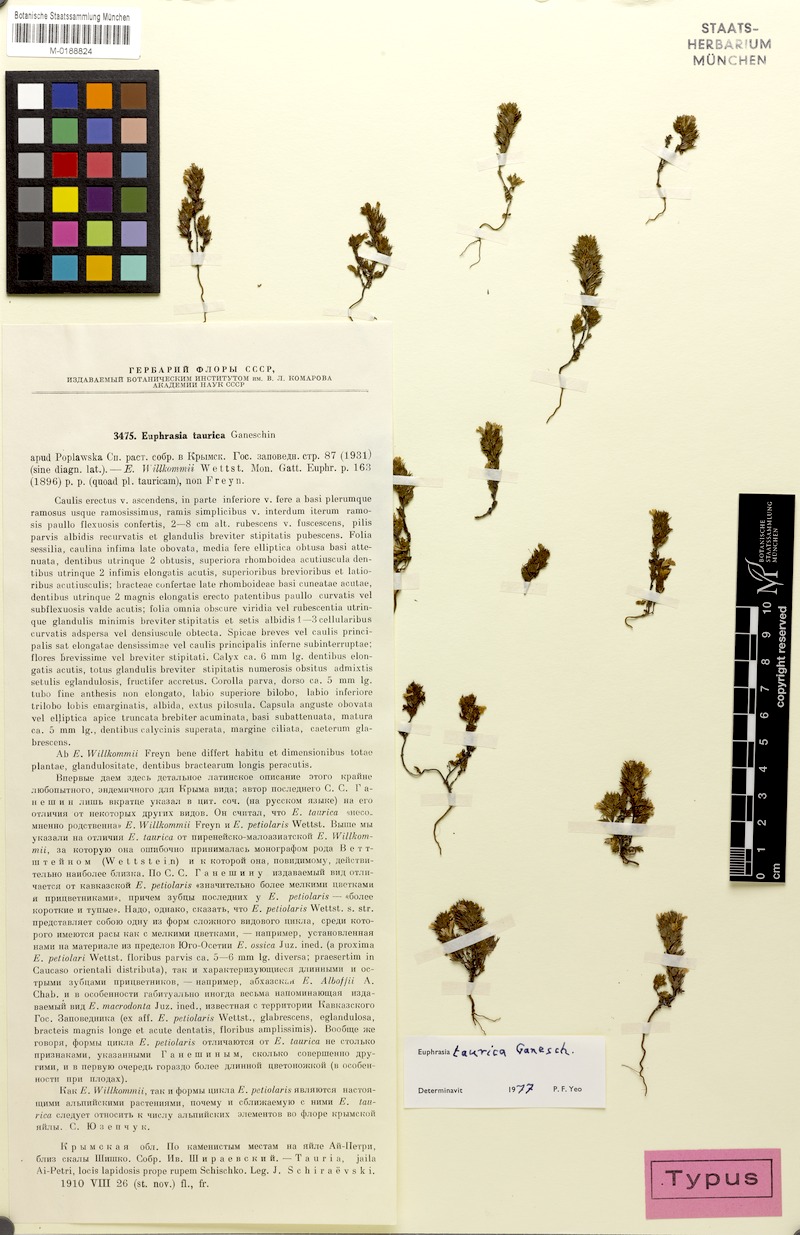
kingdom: Plantae
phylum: Tracheophyta
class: Magnoliopsida
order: Lamiales
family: Orobanchaceae
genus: Euphrasia
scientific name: Euphrasia taurica
